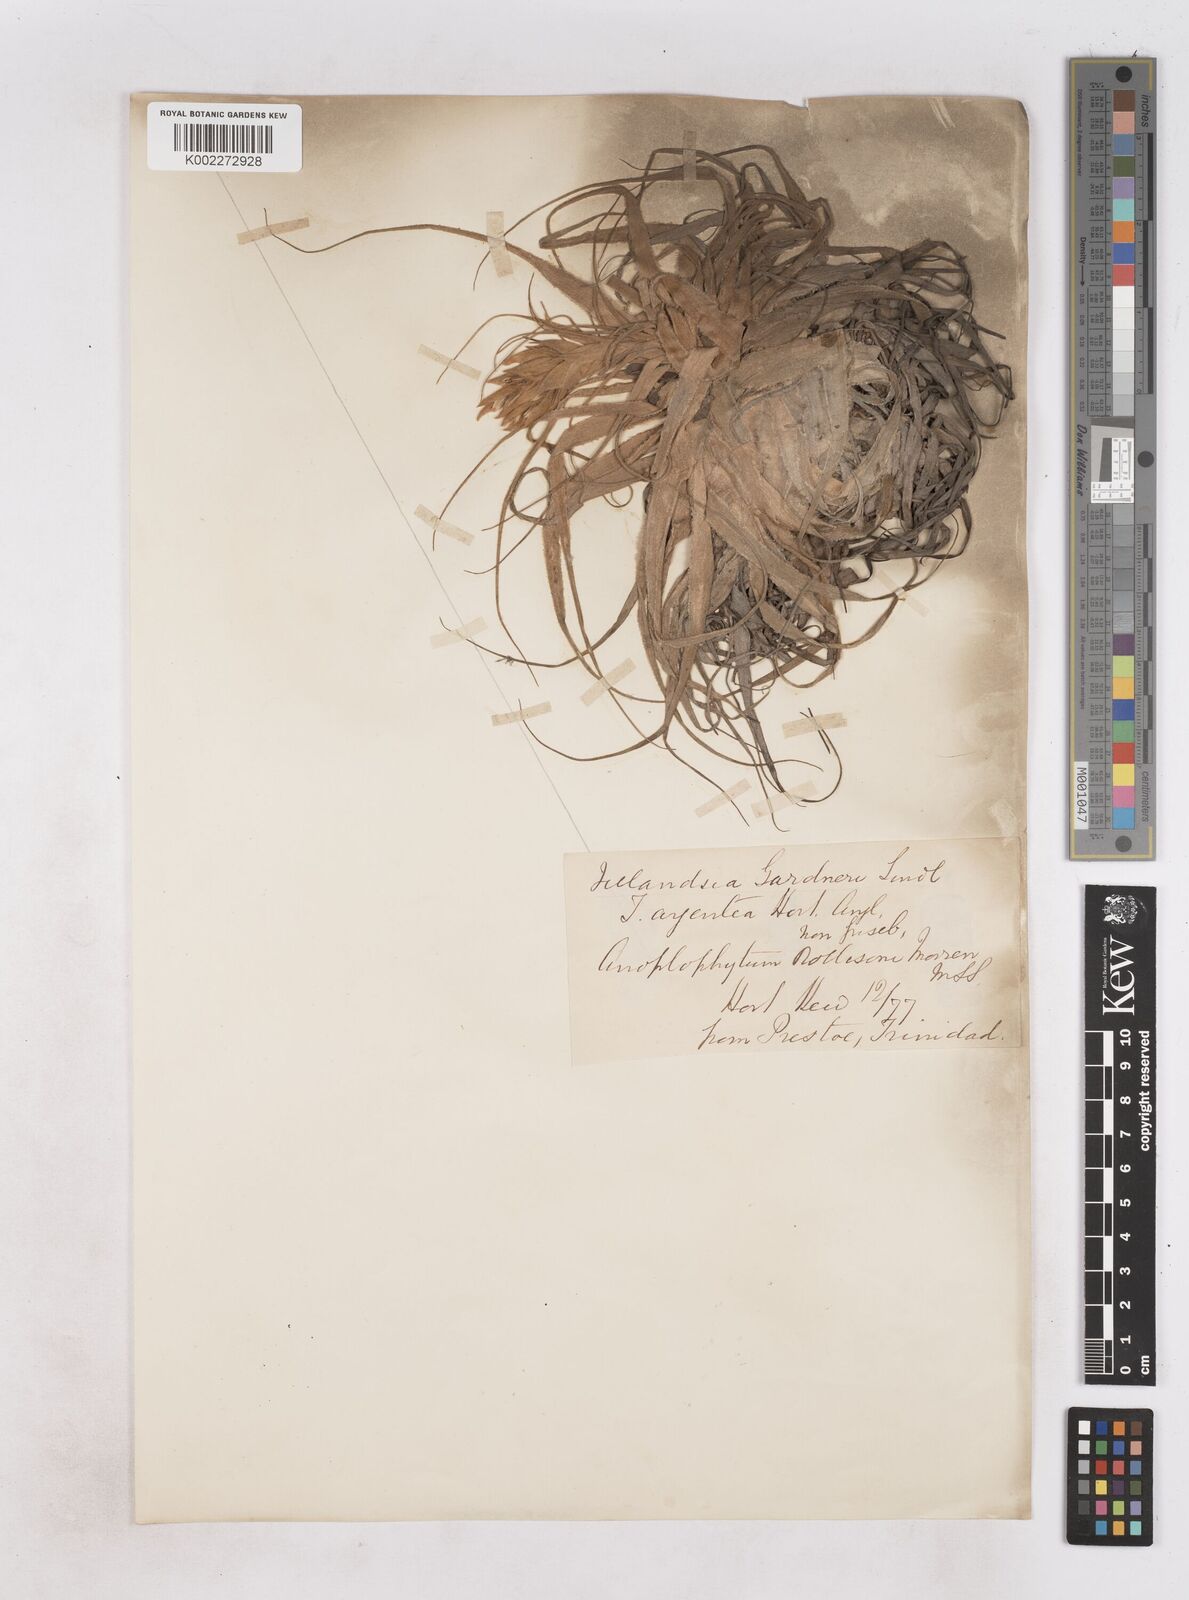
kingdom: Plantae
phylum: Tracheophyta
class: Liliopsida
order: Poales
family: Bromeliaceae
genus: Tillandsia
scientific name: Tillandsia gardneri
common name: Airplant
